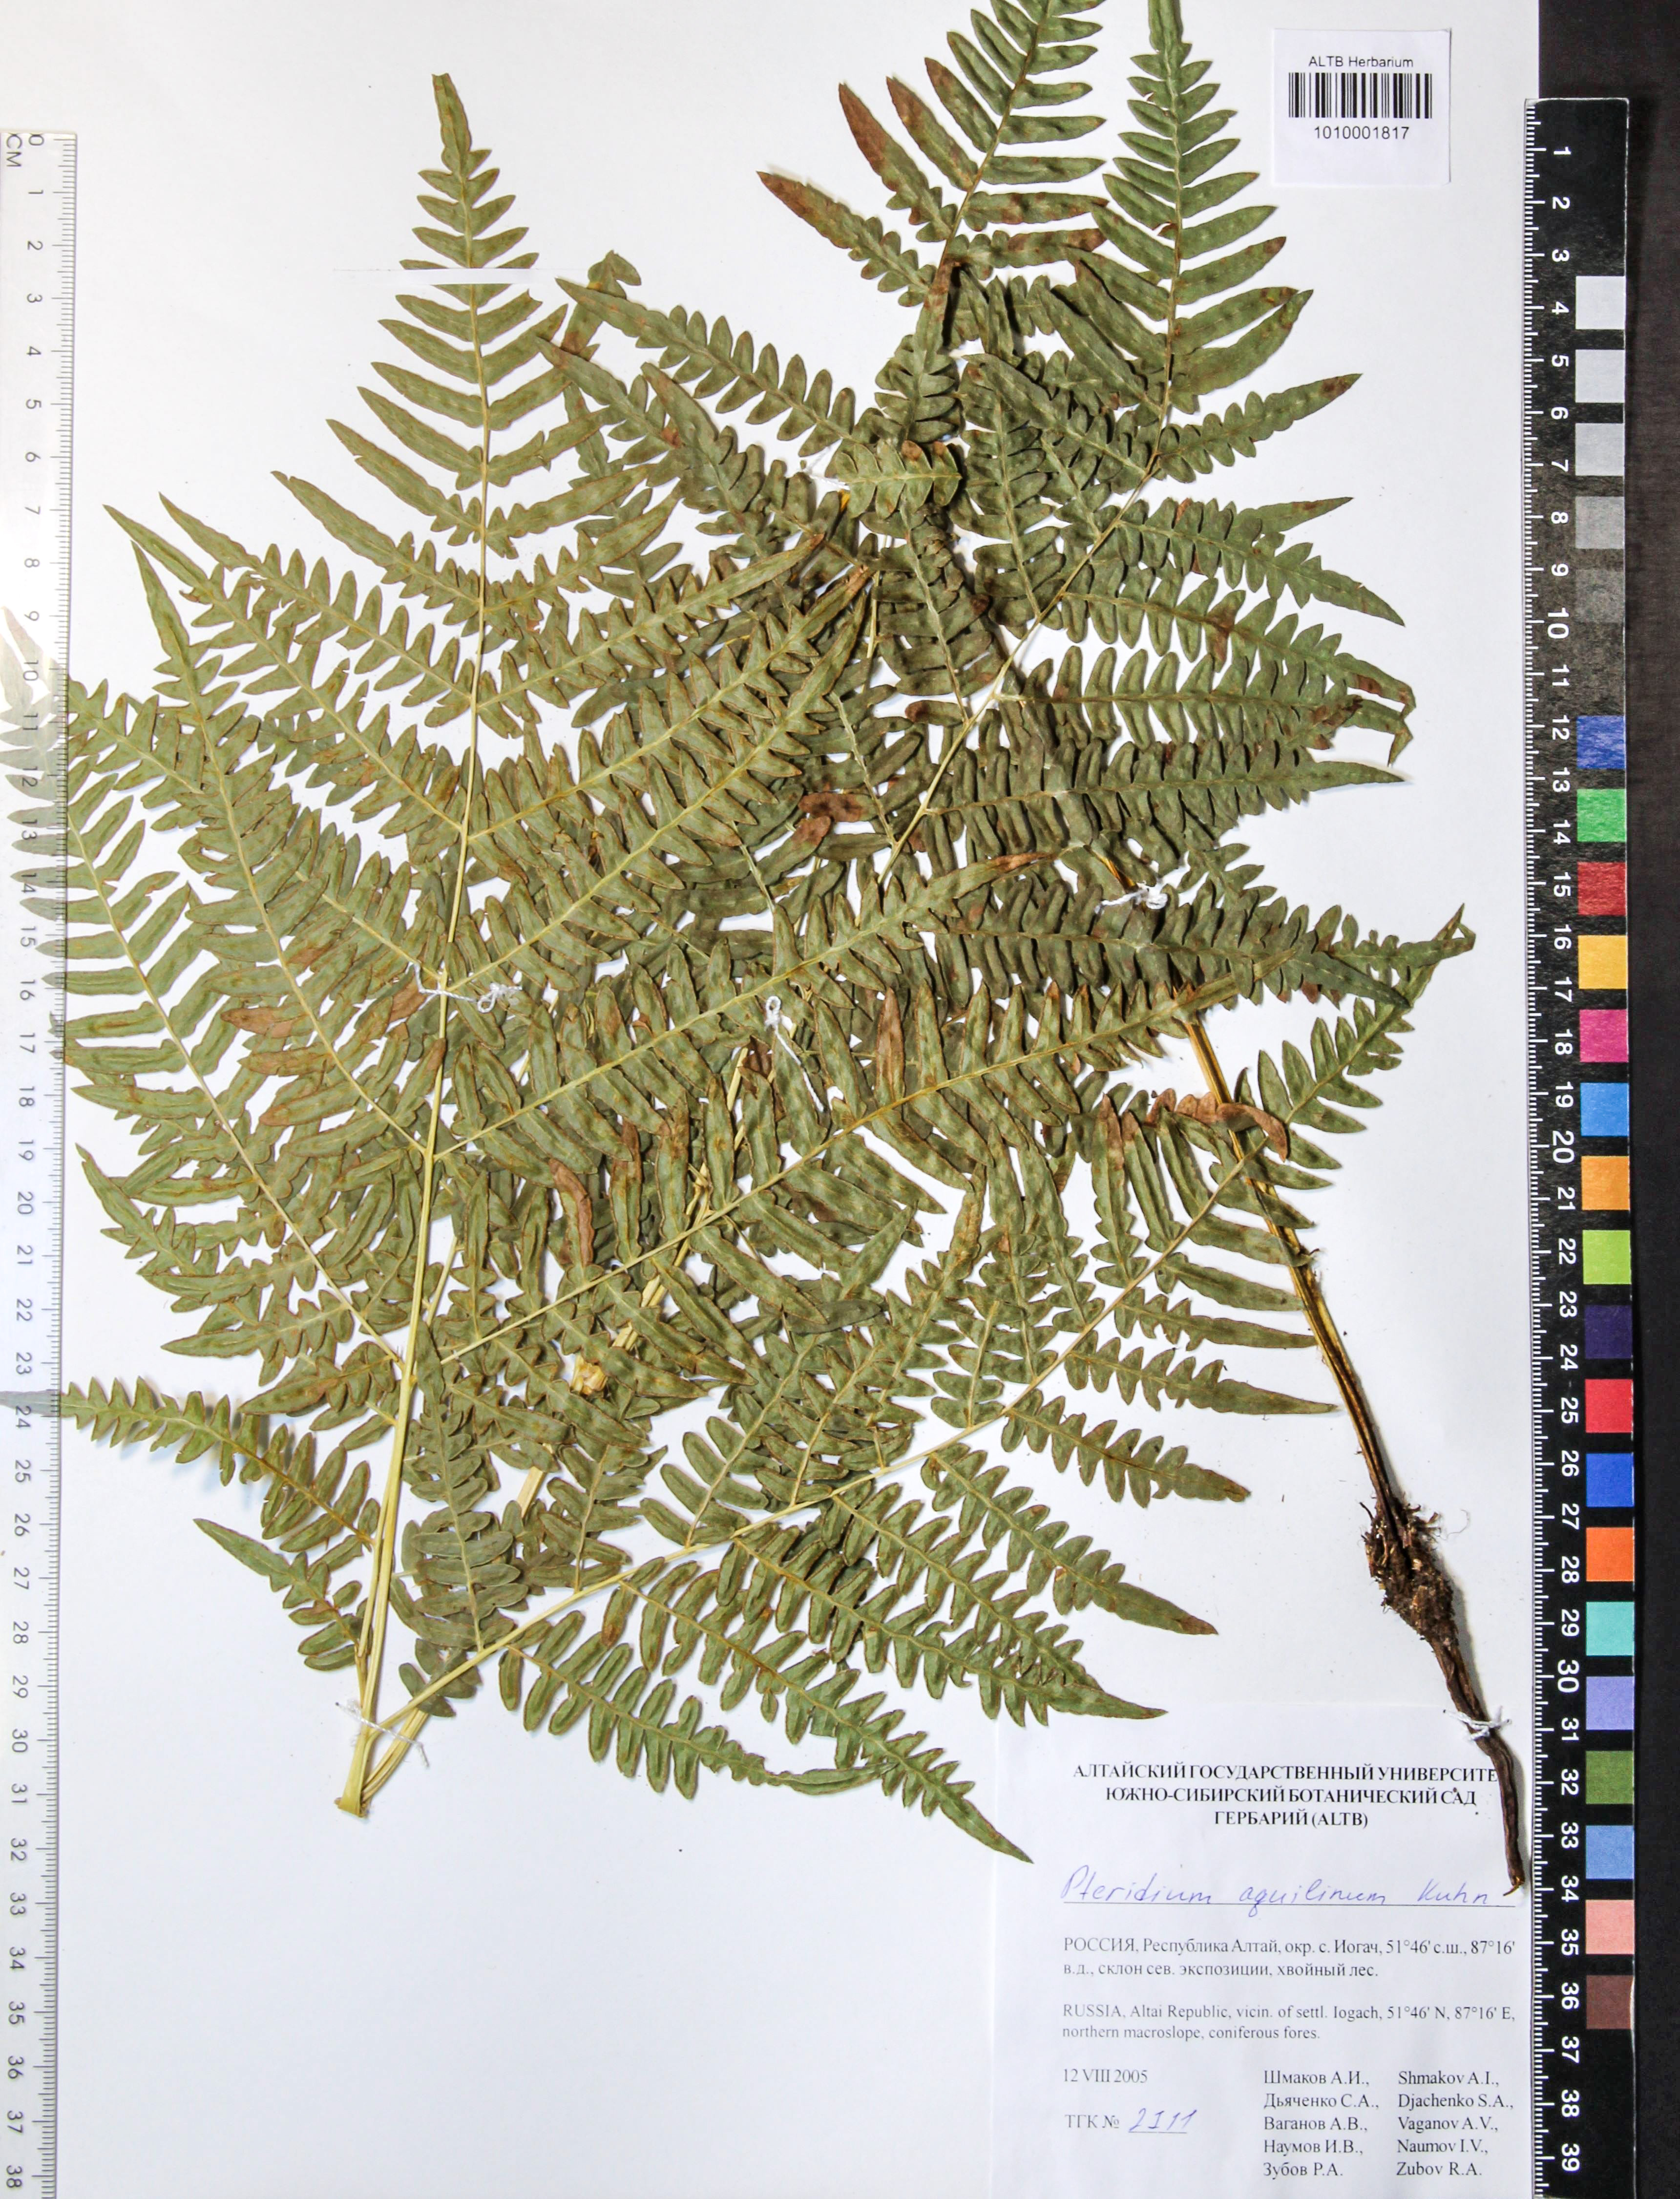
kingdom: Plantae
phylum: Tracheophyta
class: Polypodiopsida
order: Polypodiales
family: Dennstaedtiaceae
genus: Pteridium
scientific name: Pteridium aquilinum
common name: Bracken
